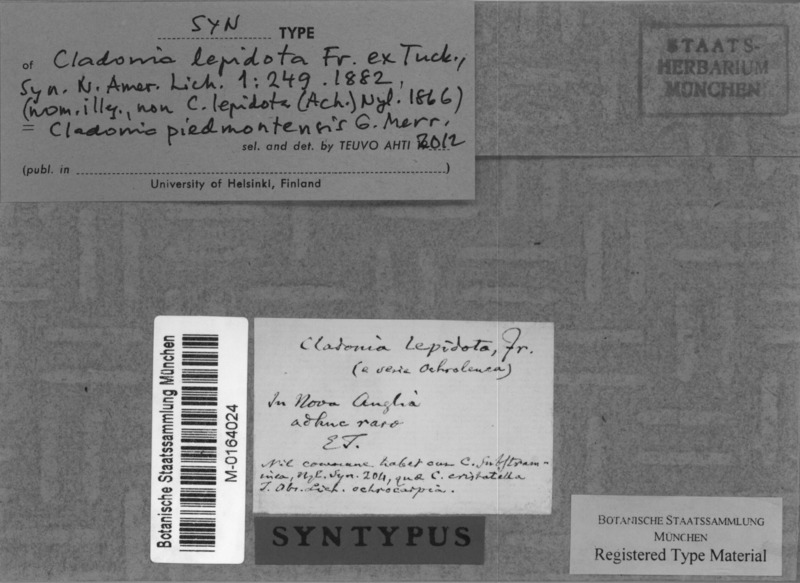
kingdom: Fungi
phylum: Ascomycota
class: Lecanoromycetes
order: Lecanorales
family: Cladoniaceae
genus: Cladonia
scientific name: Cladonia piedmontensis
